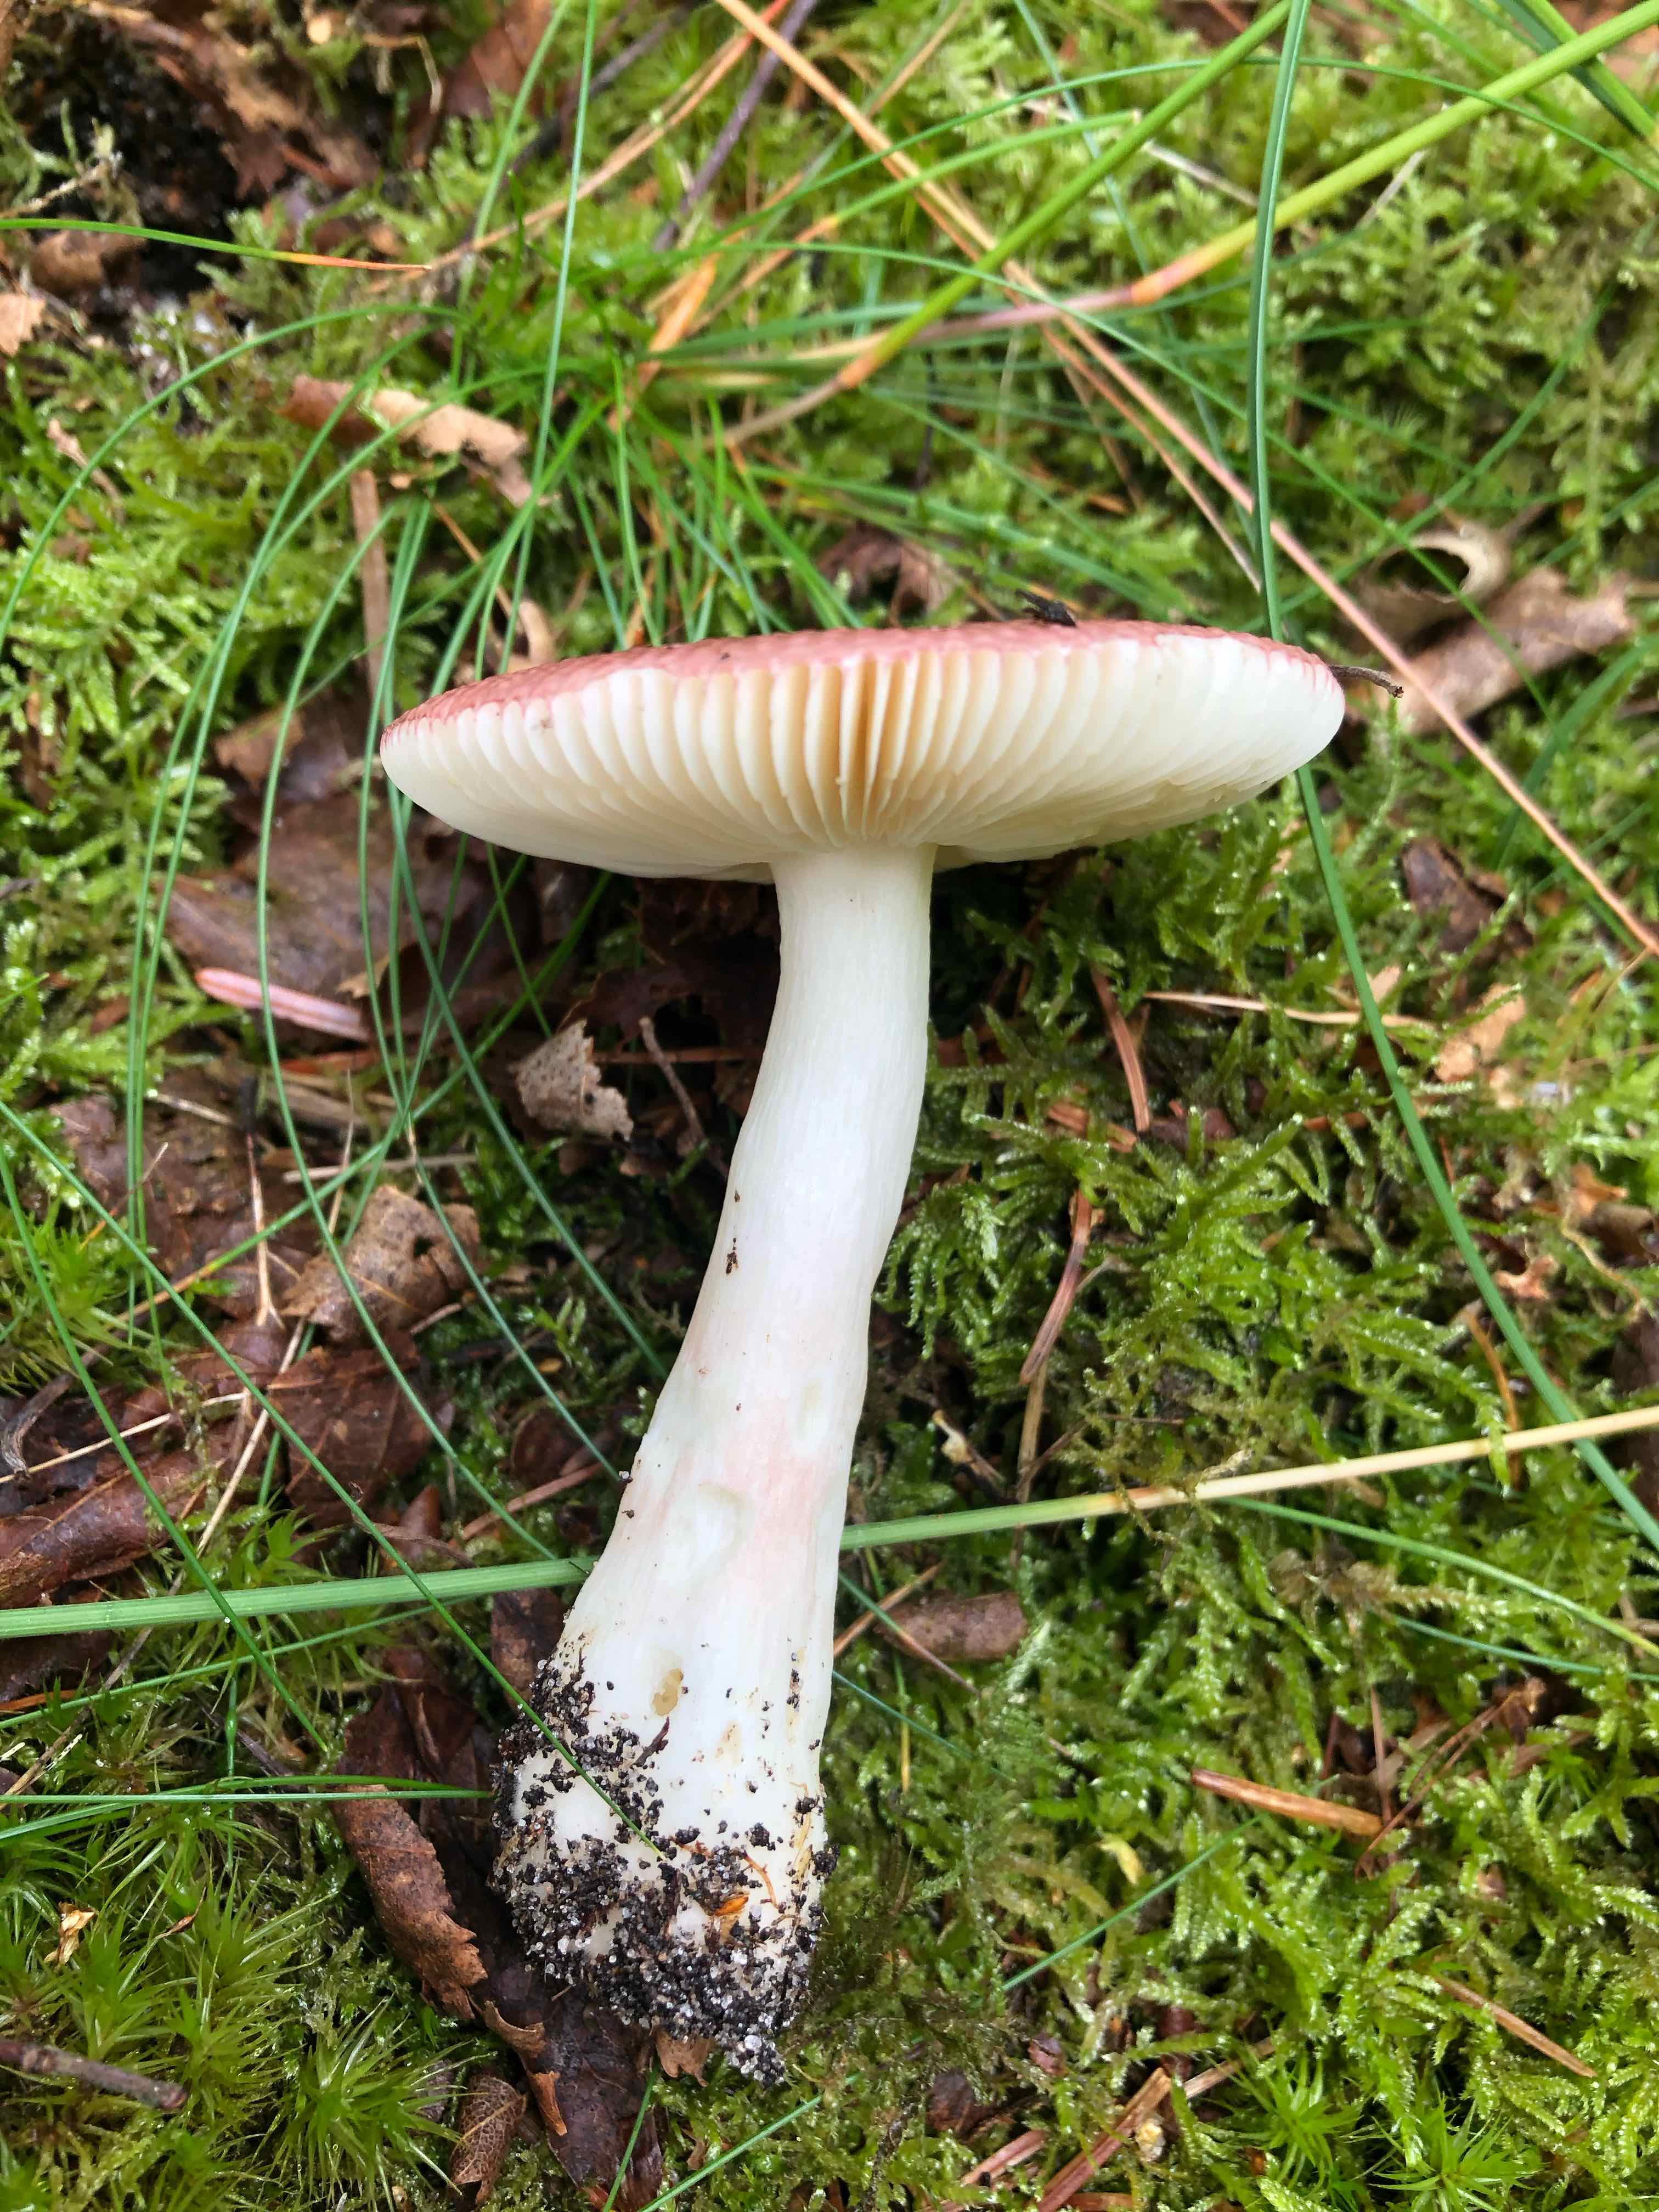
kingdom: Fungi
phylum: Basidiomycota
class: Agaricomycetes
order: Russulales
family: Russulaceae
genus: Russula
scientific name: Russula nitida
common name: året skørhat
